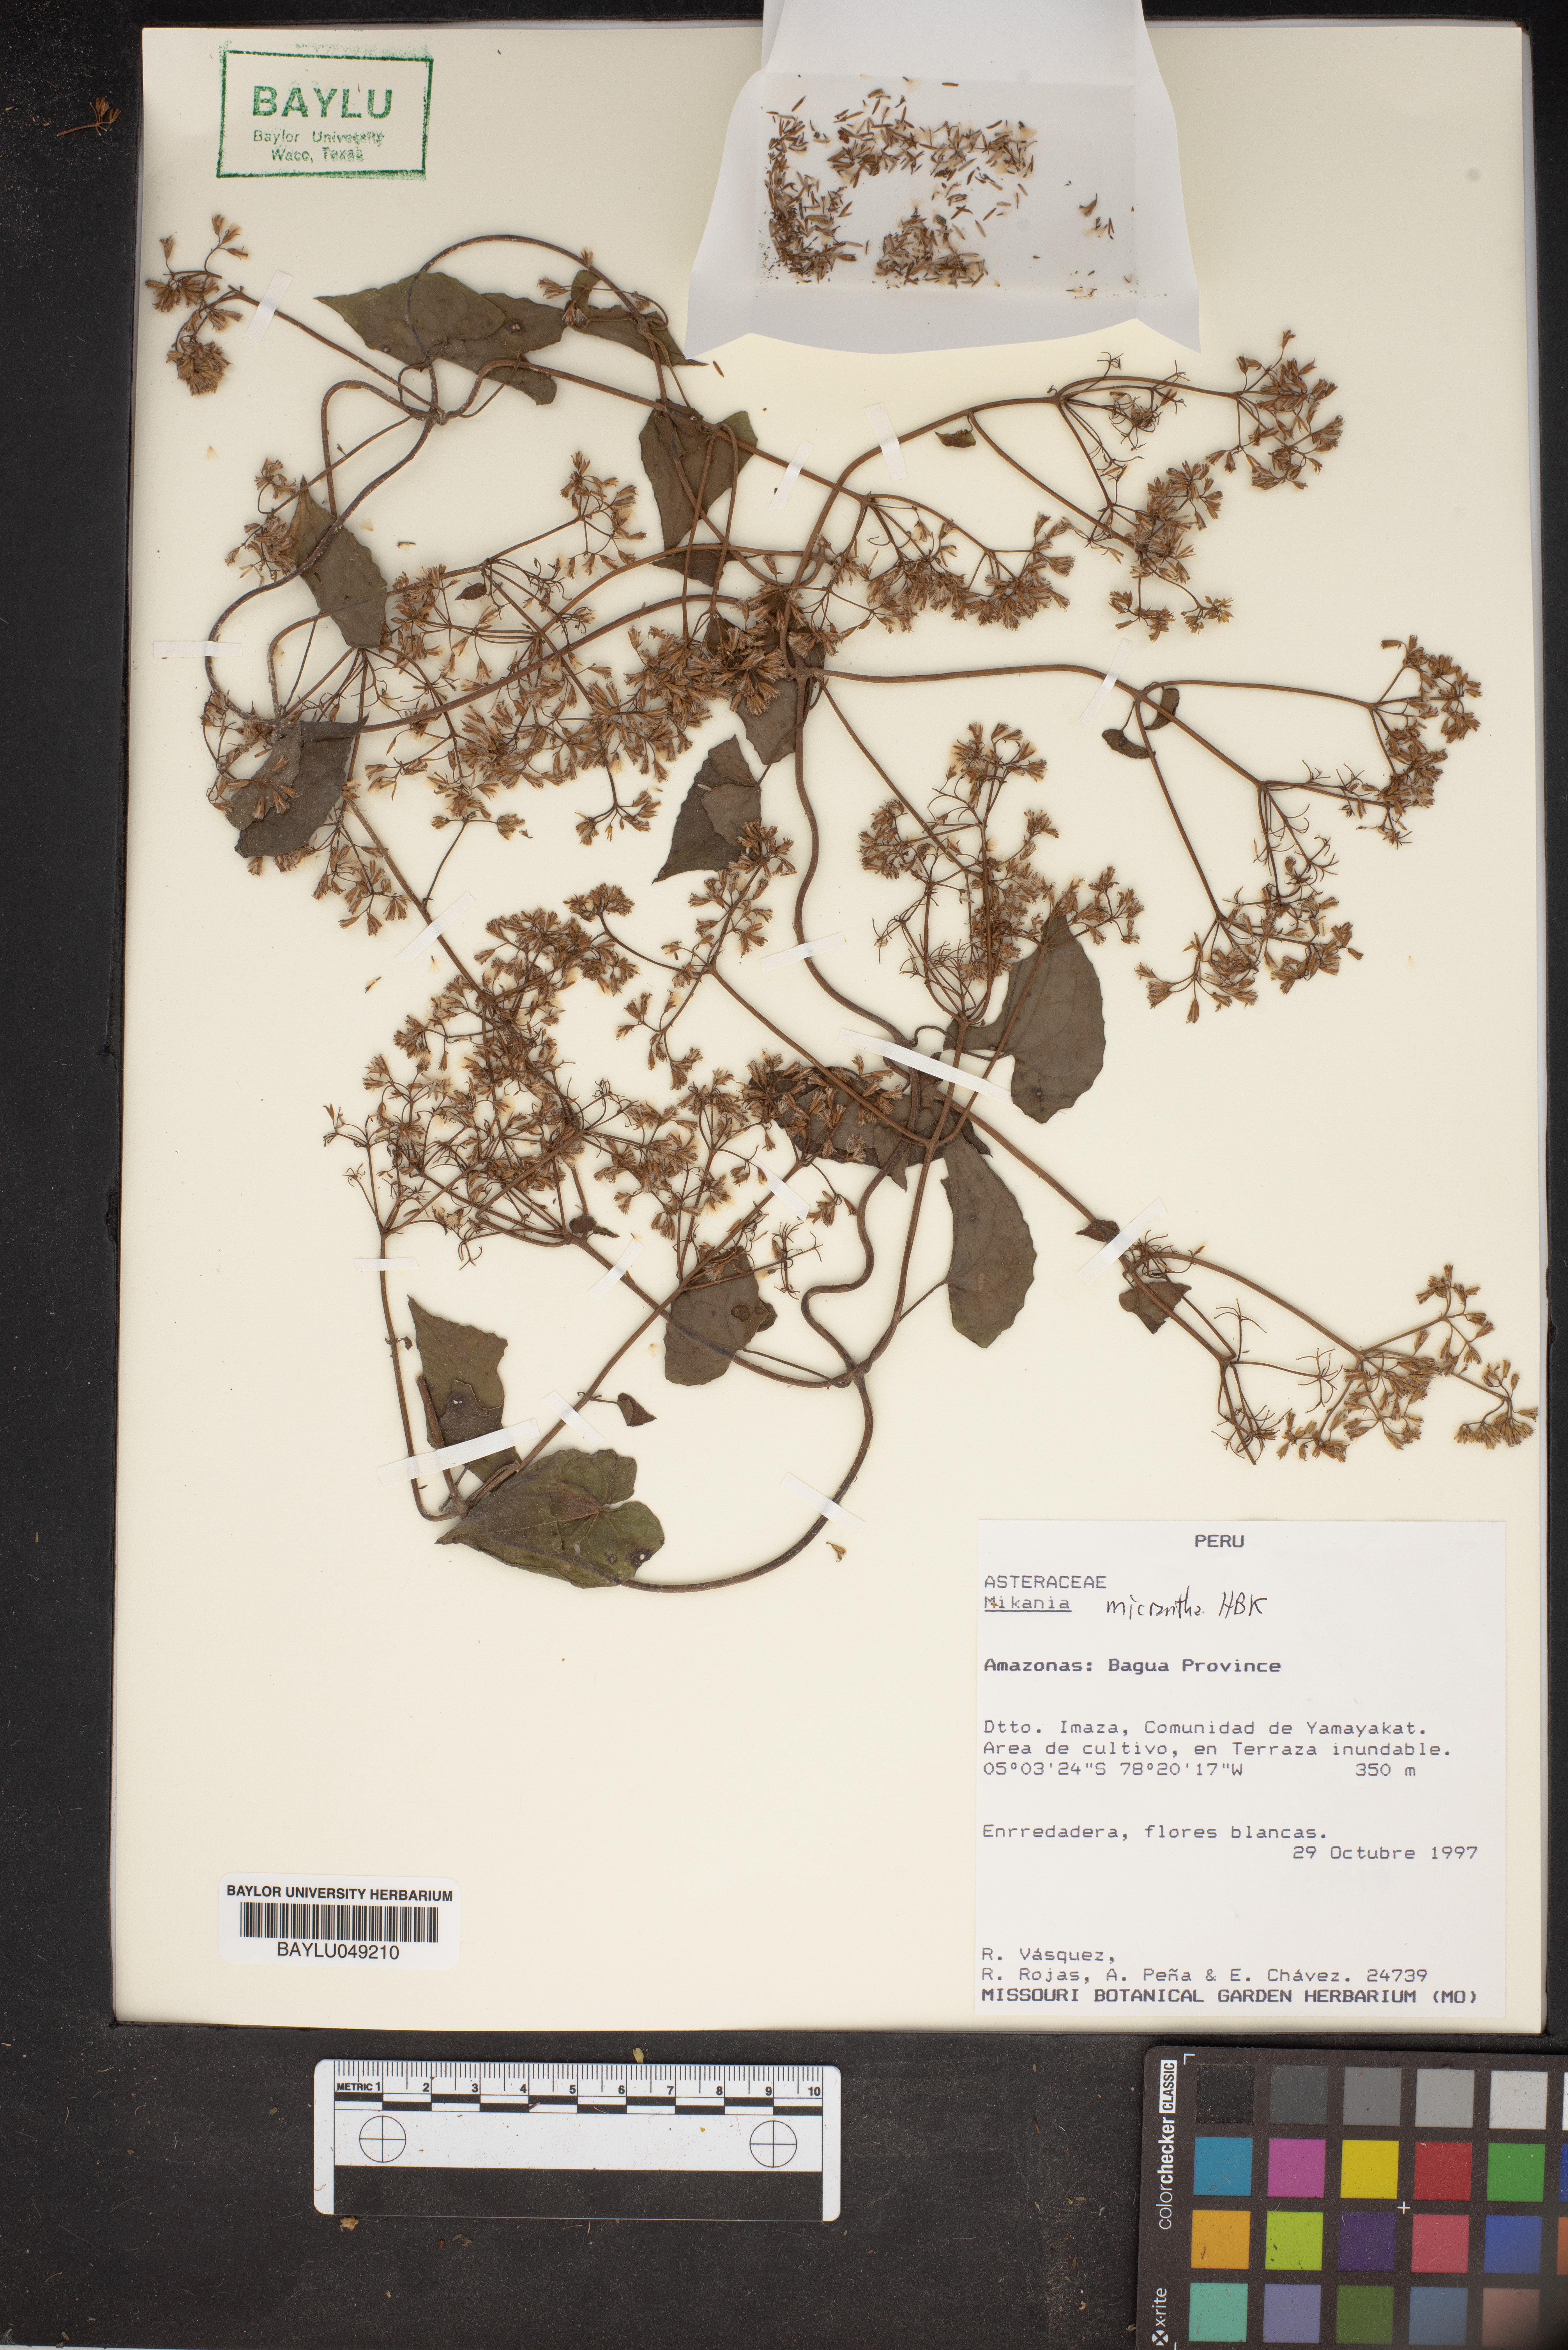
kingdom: Plantae
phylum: Tracheophyta
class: Magnoliopsida
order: Asterales
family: Asteraceae
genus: Mikania
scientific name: Mikania micrantha
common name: Mile-a-minute
